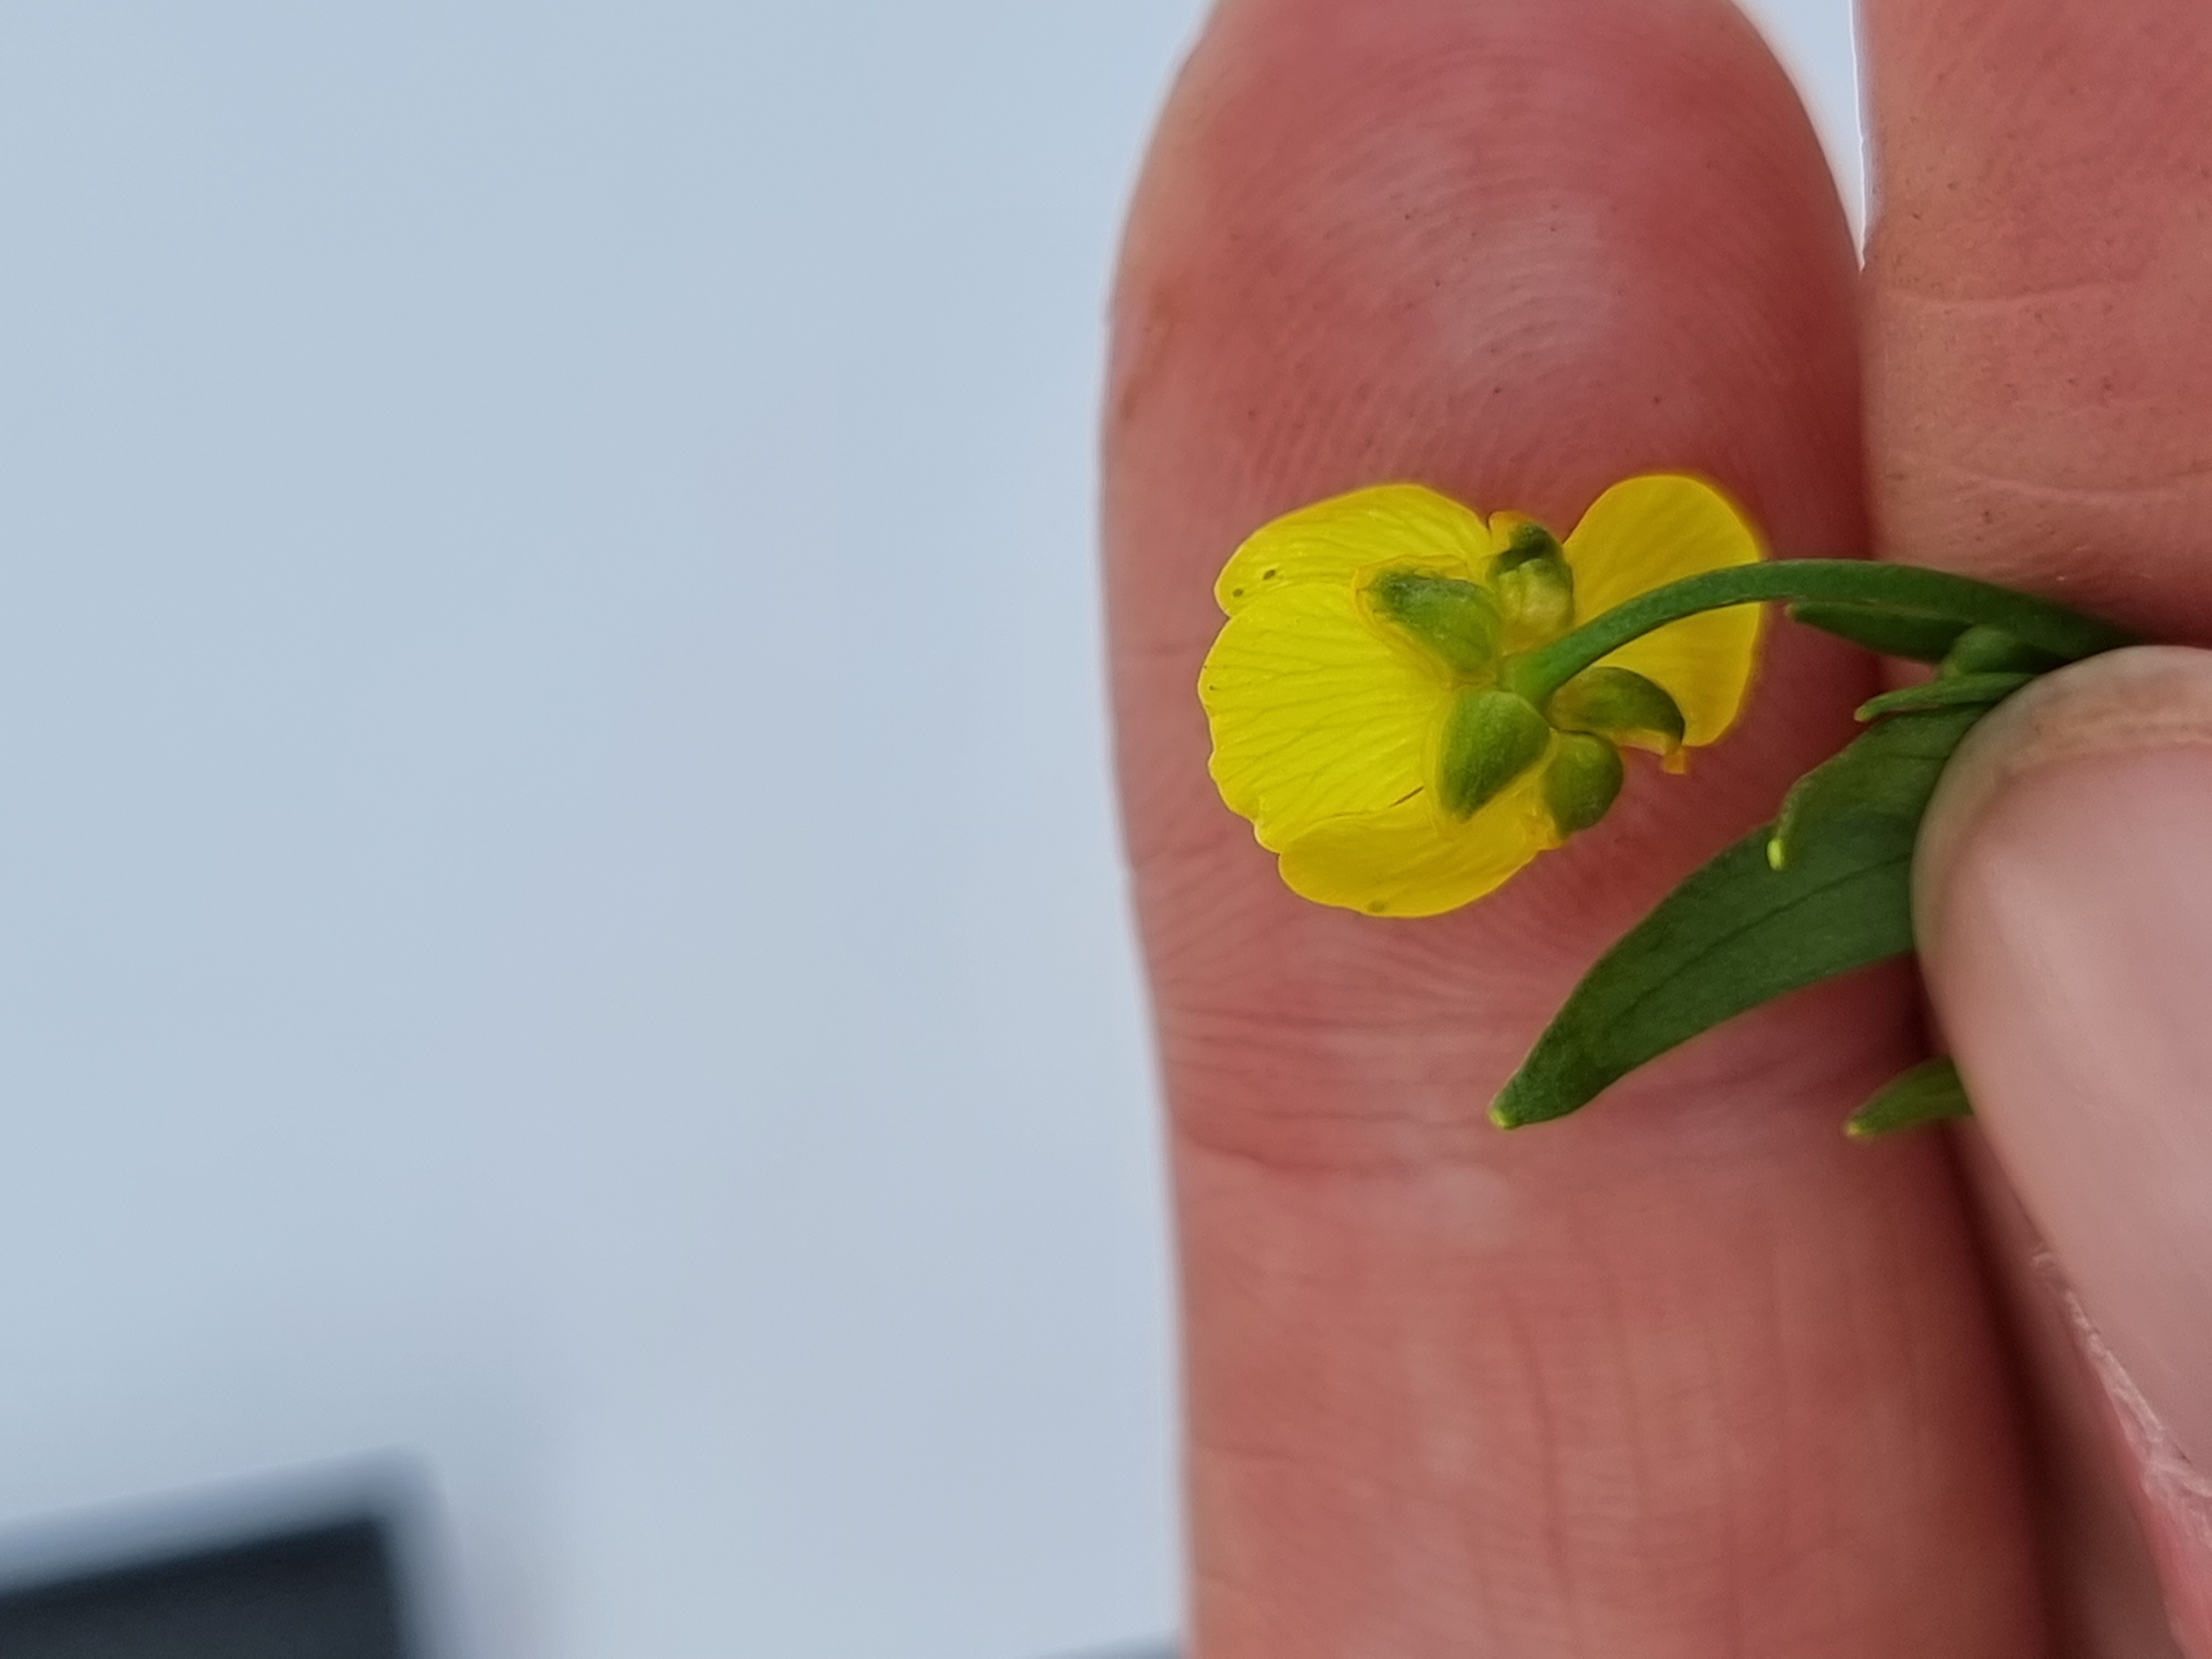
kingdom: Plantae
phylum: Tracheophyta
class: Magnoliopsida
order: Ranunculales
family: Ranunculaceae
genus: Ranunculus
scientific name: Ranunculus flammula
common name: Kær-ranunkel
